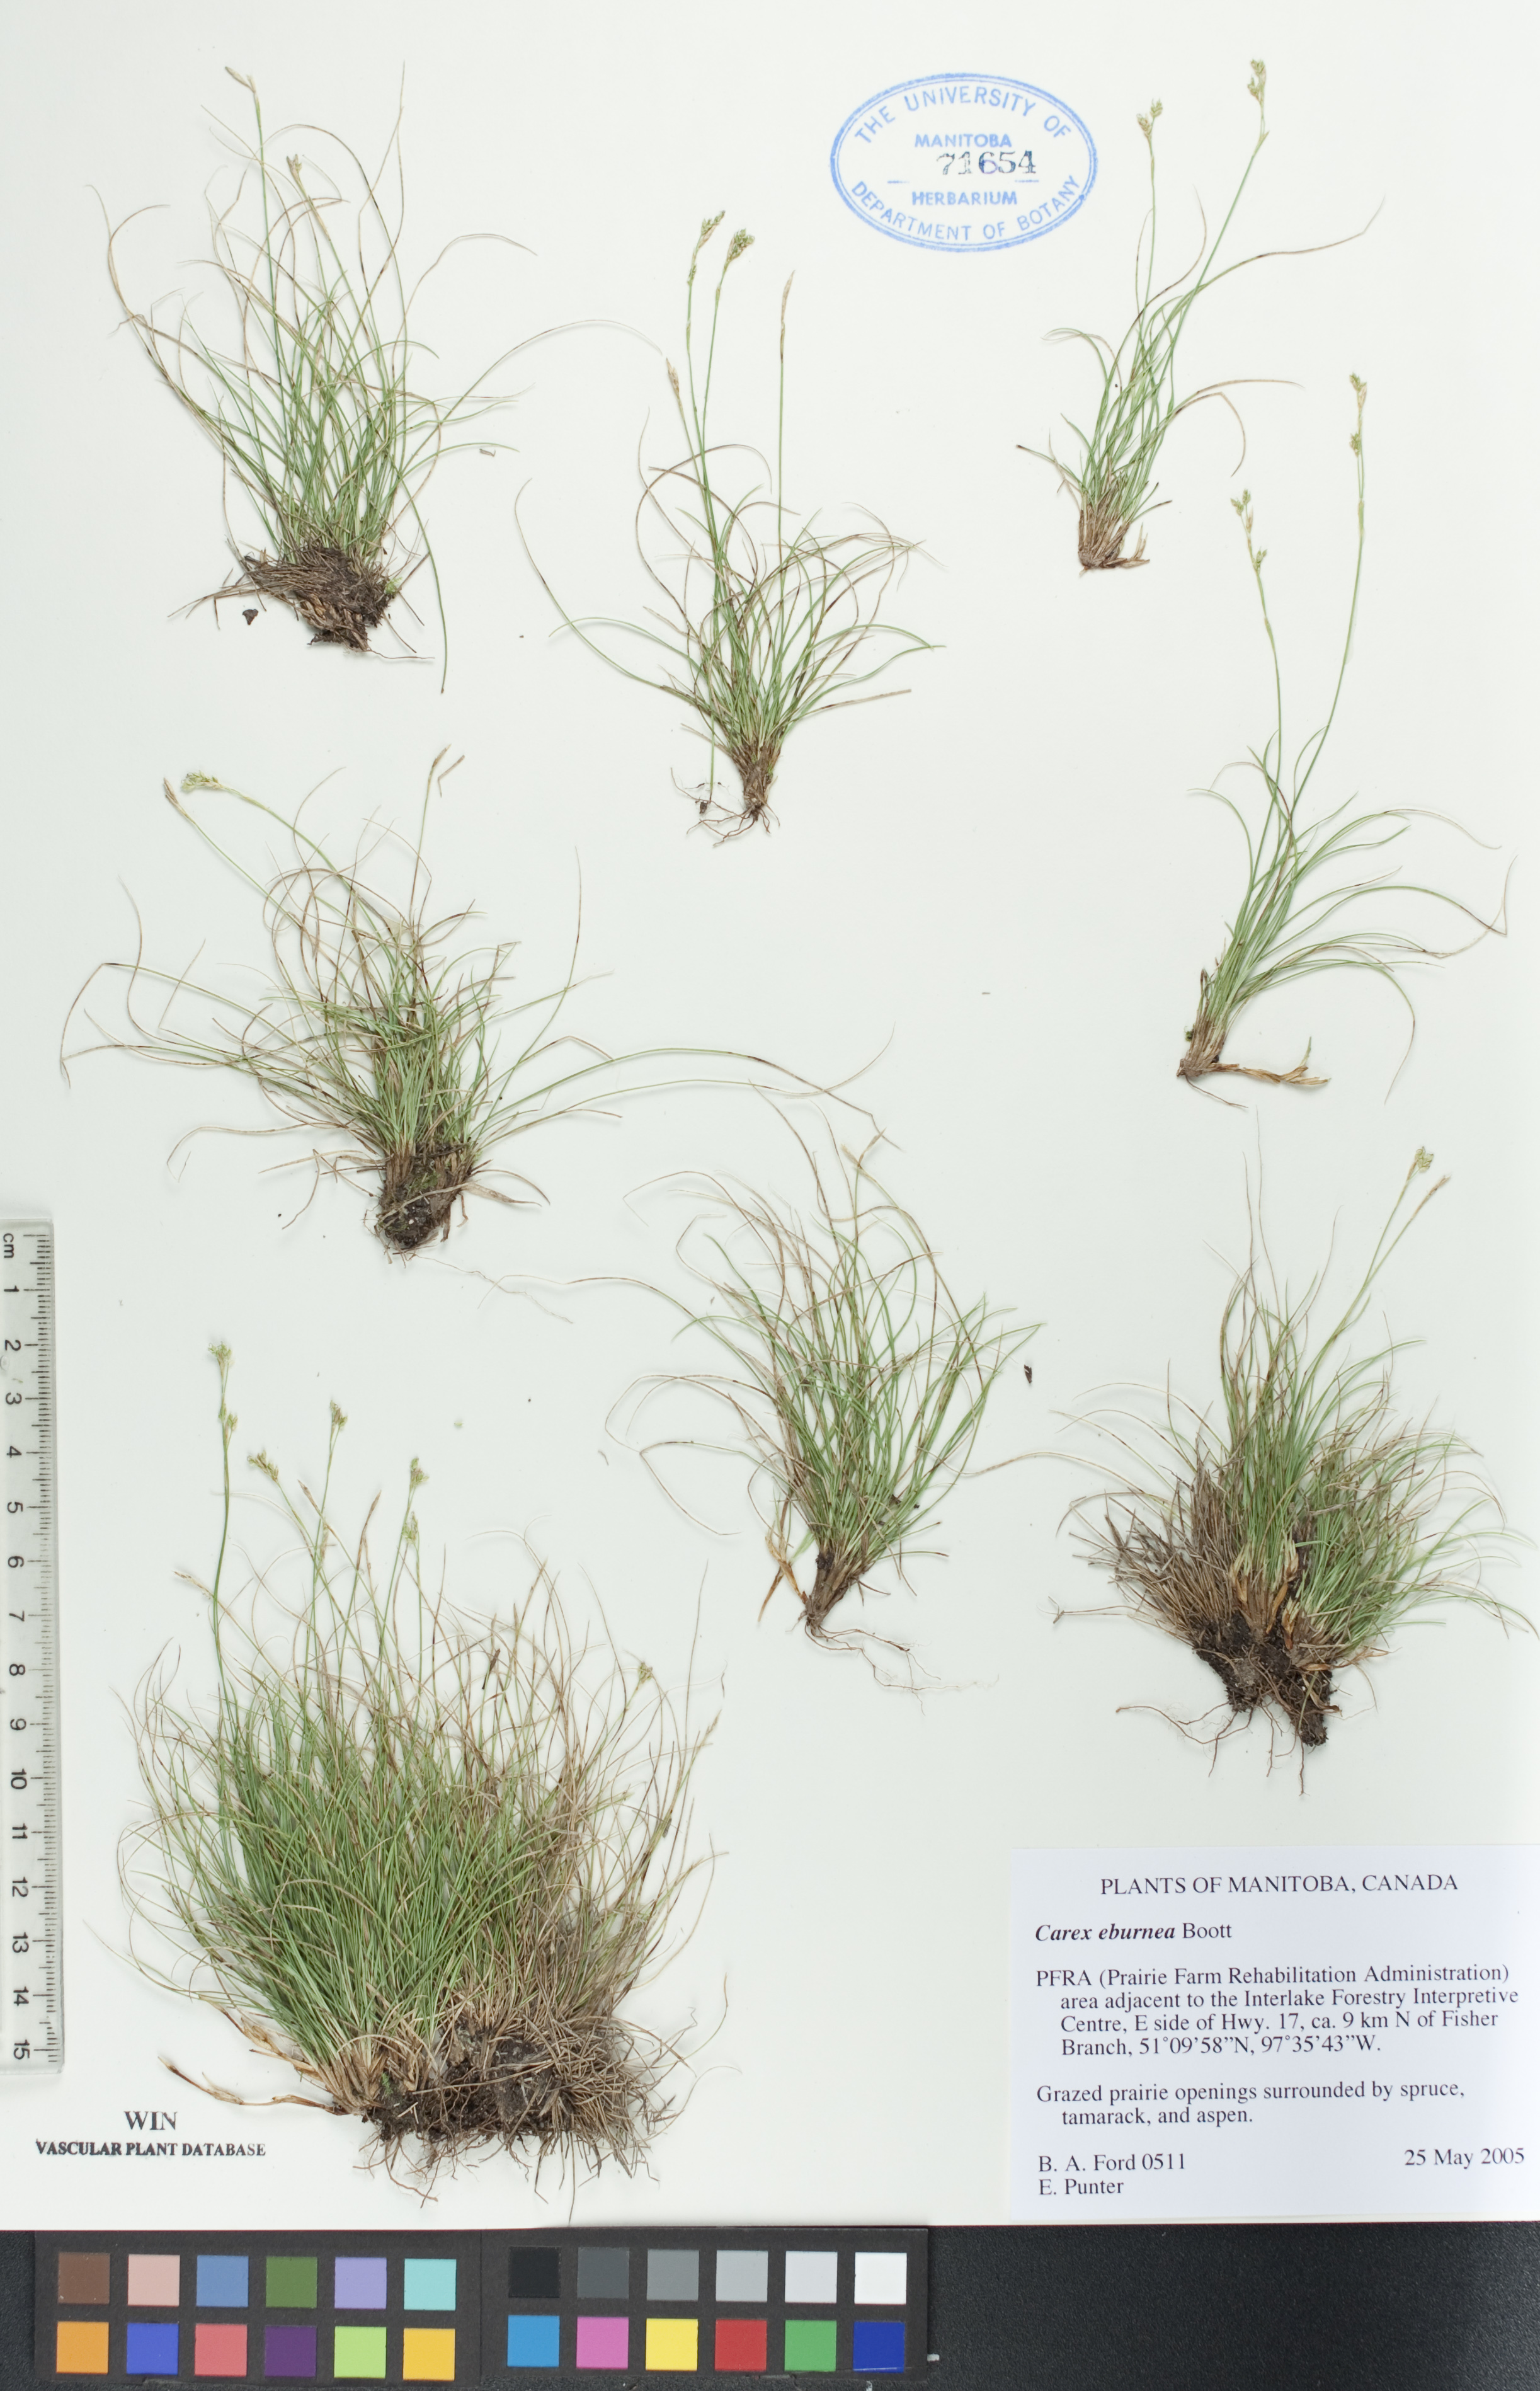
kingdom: Plantae
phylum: Tracheophyta
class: Liliopsida
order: Poales
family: Cyperaceae
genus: Carex
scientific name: Carex eburnea
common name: Bristle-leaved sedge
